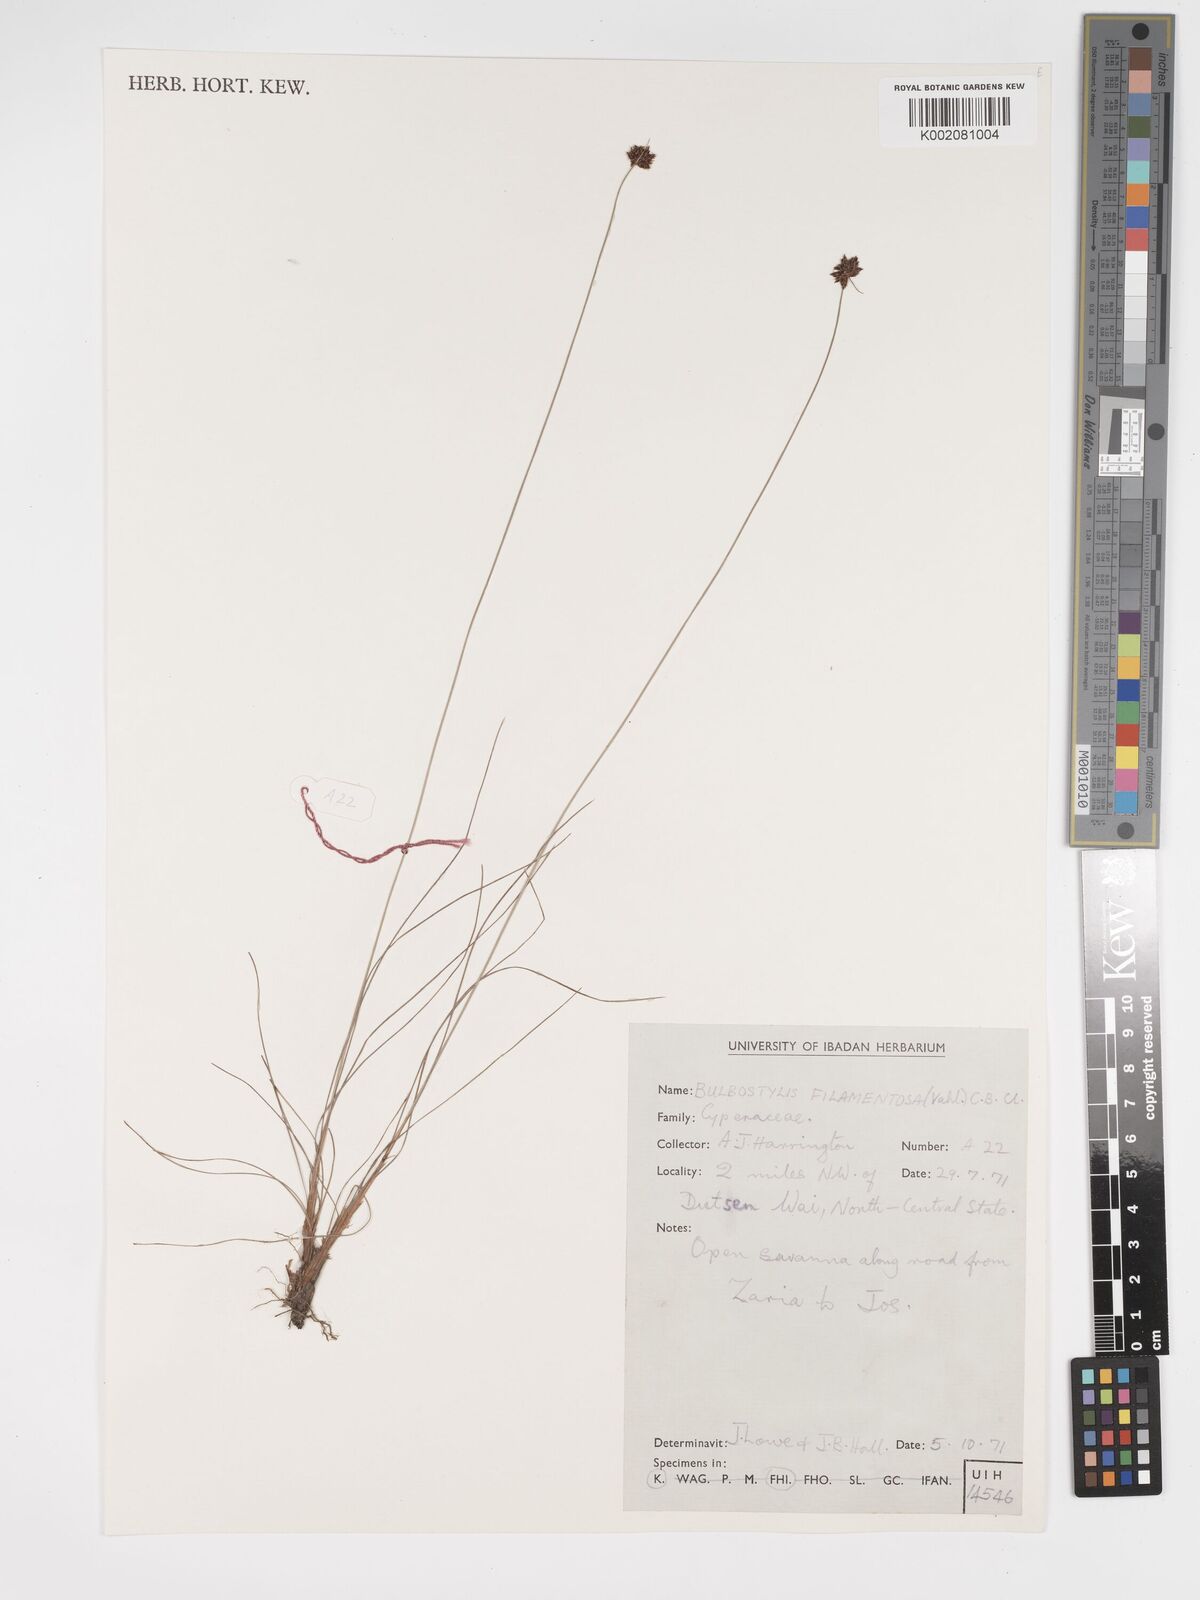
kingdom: Plantae
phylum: Tracheophyta
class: Liliopsida
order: Poales
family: Cyperaceae
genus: Bulbostylis
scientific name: Bulbostylis filamentosa
